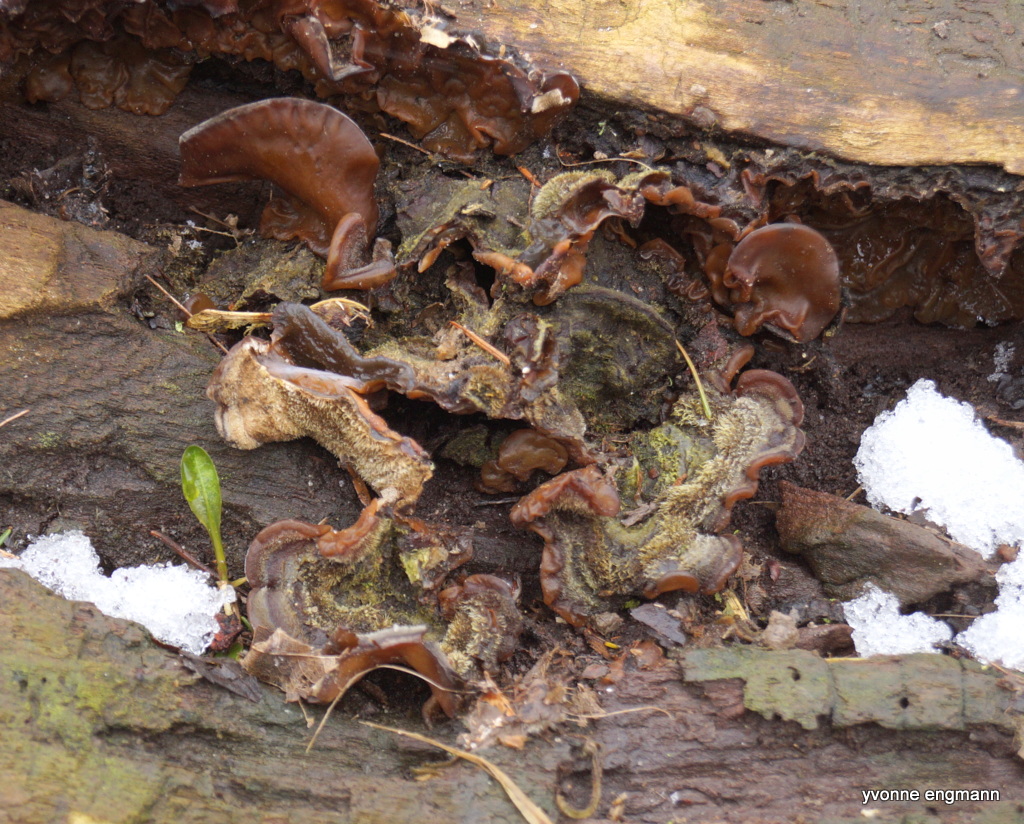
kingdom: Fungi
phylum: Basidiomycota
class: Agaricomycetes
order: Auriculariales
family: Auriculariaceae
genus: Auricularia
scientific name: Auricularia mesenterica
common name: håret judasøre
